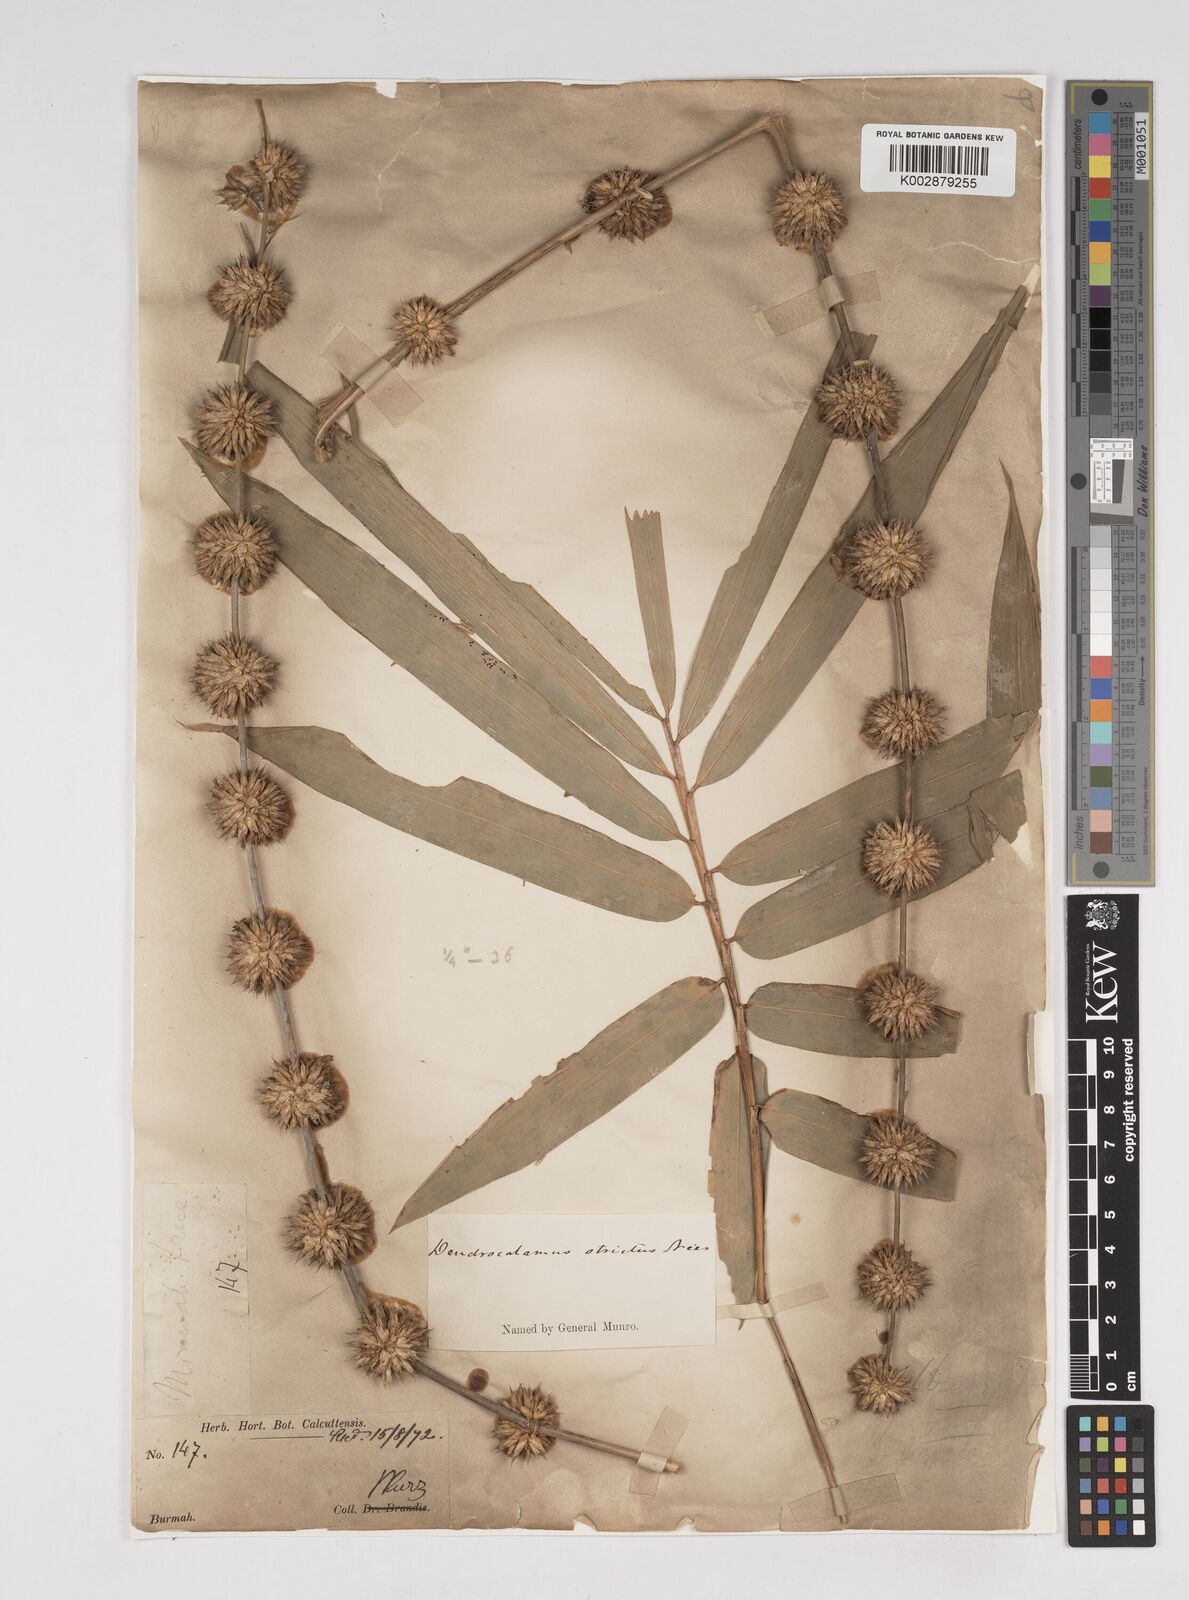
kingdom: Plantae
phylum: Tracheophyta
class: Liliopsida
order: Poales
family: Poaceae
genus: Dendrocalamus
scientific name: Dendrocalamus strictus
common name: Male bamboo
